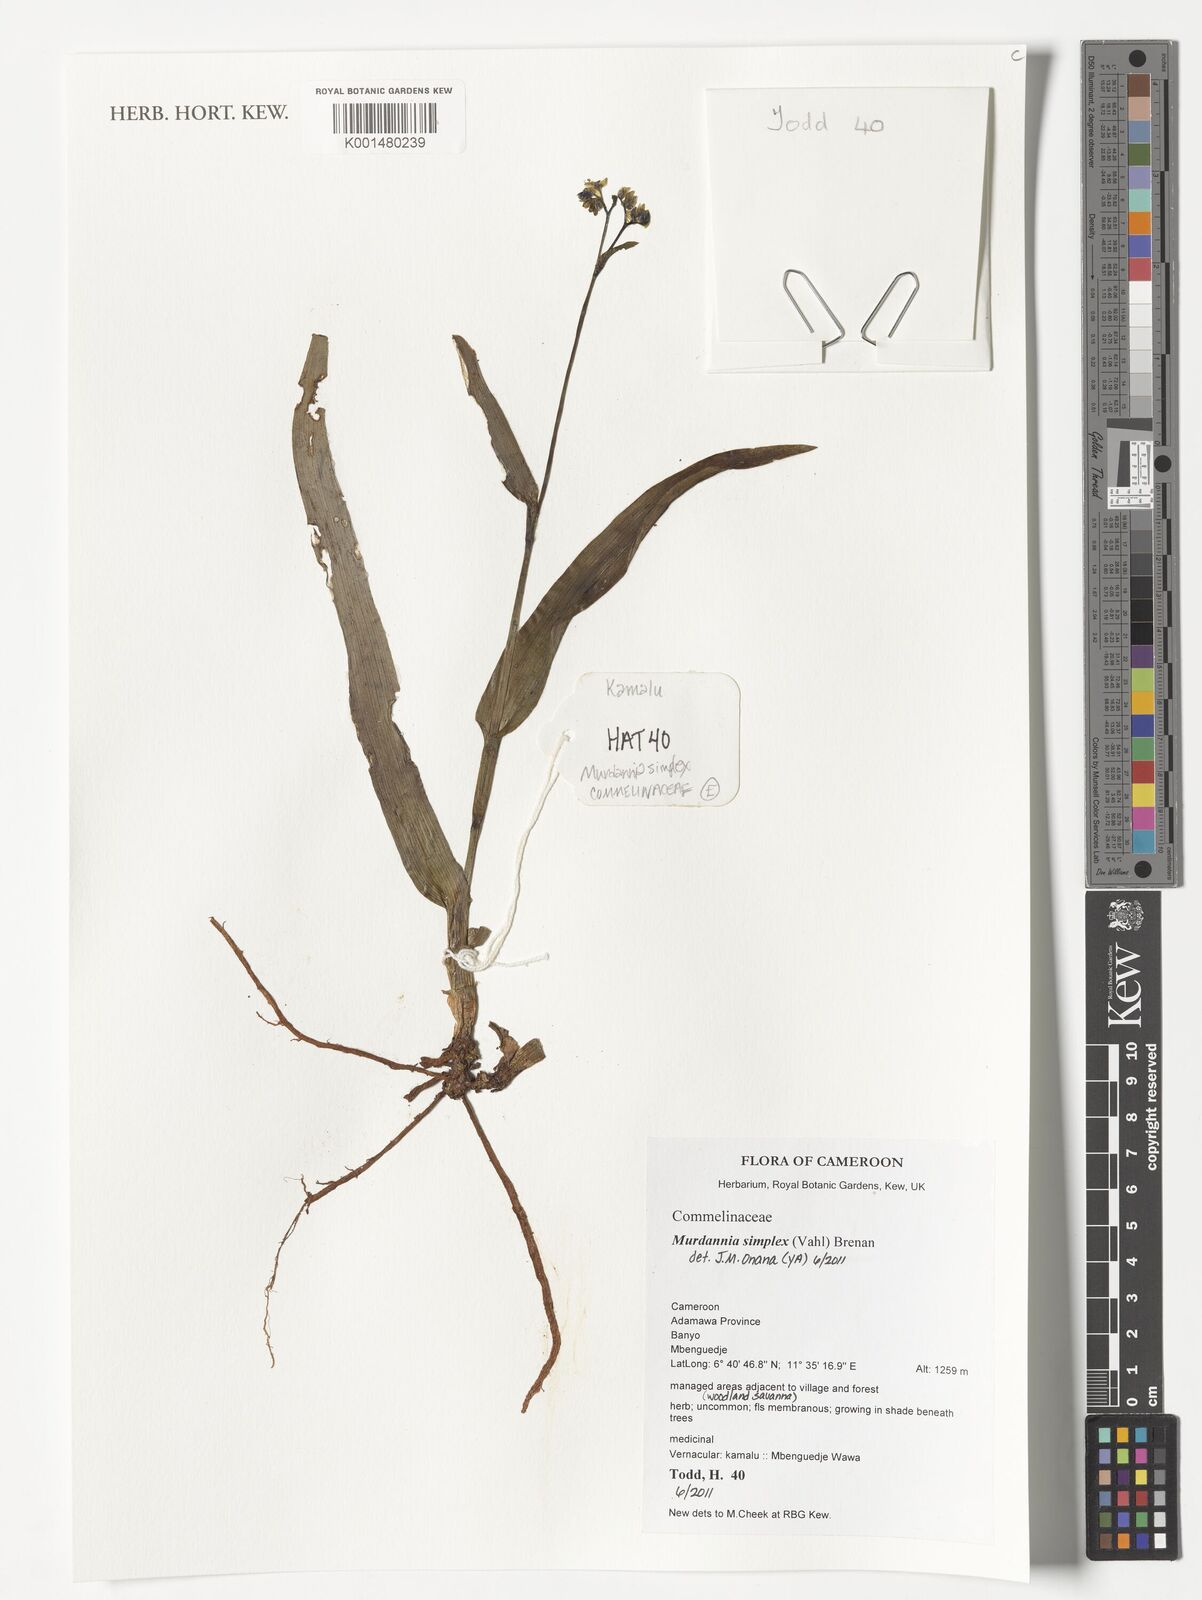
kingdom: Plantae
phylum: Tracheophyta
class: Liliopsida
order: Commelinales
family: Commelinaceae
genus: Murdannia
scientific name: Murdannia simplex
